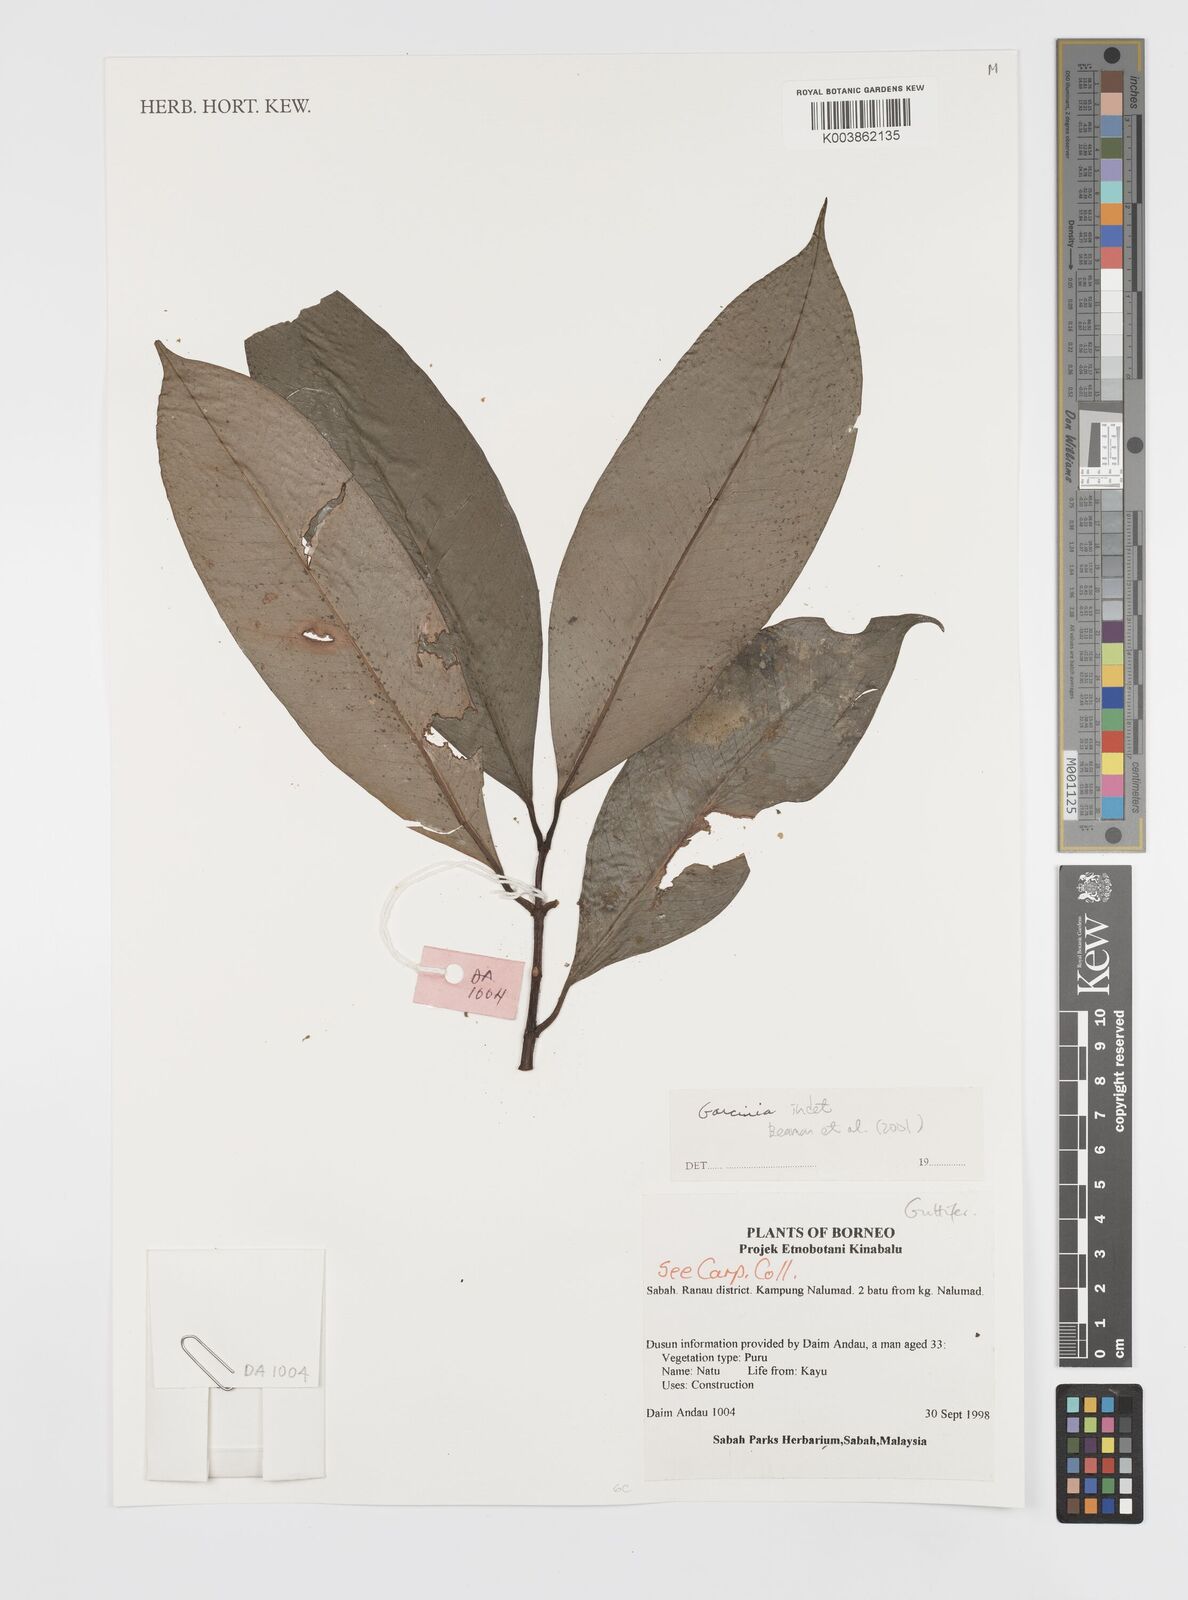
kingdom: Plantae
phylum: Tracheophyta
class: Magnoliopsida
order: Malpighiales
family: Clusiaceae
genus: Garcinia
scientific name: Garcinia
